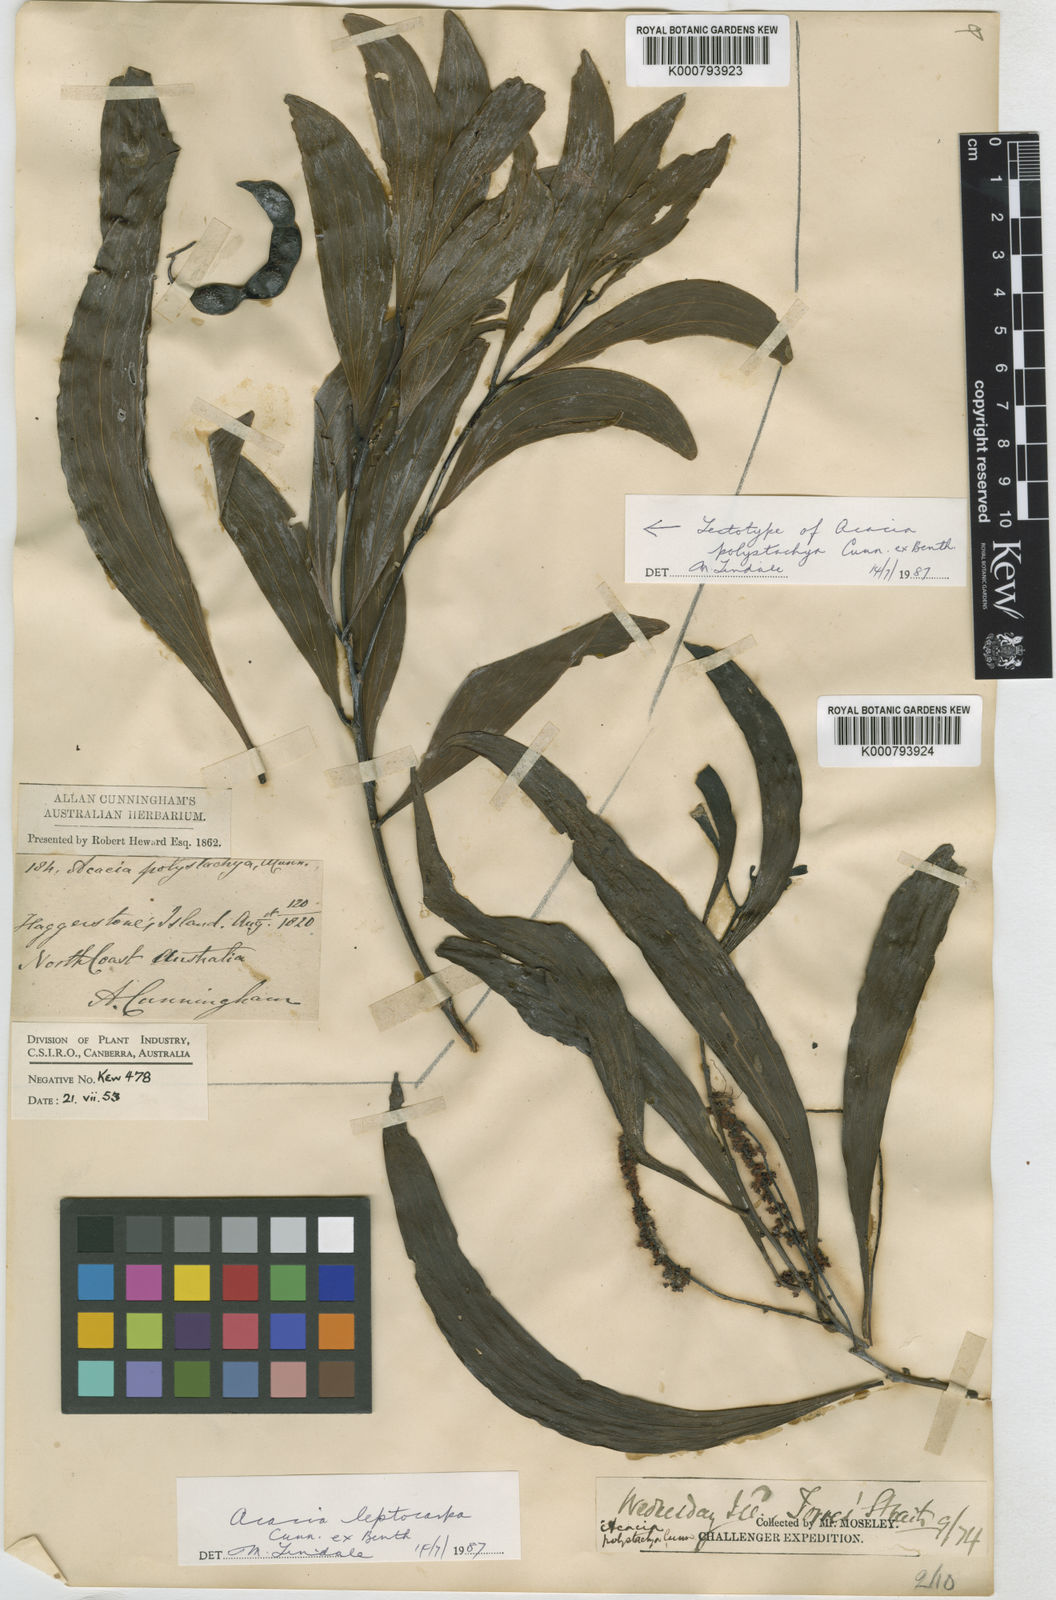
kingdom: Plantae
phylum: Tracheophyta
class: Magnoliopsida
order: Fabales
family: Fabaceae
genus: Acacia
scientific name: Acacia polystachya
